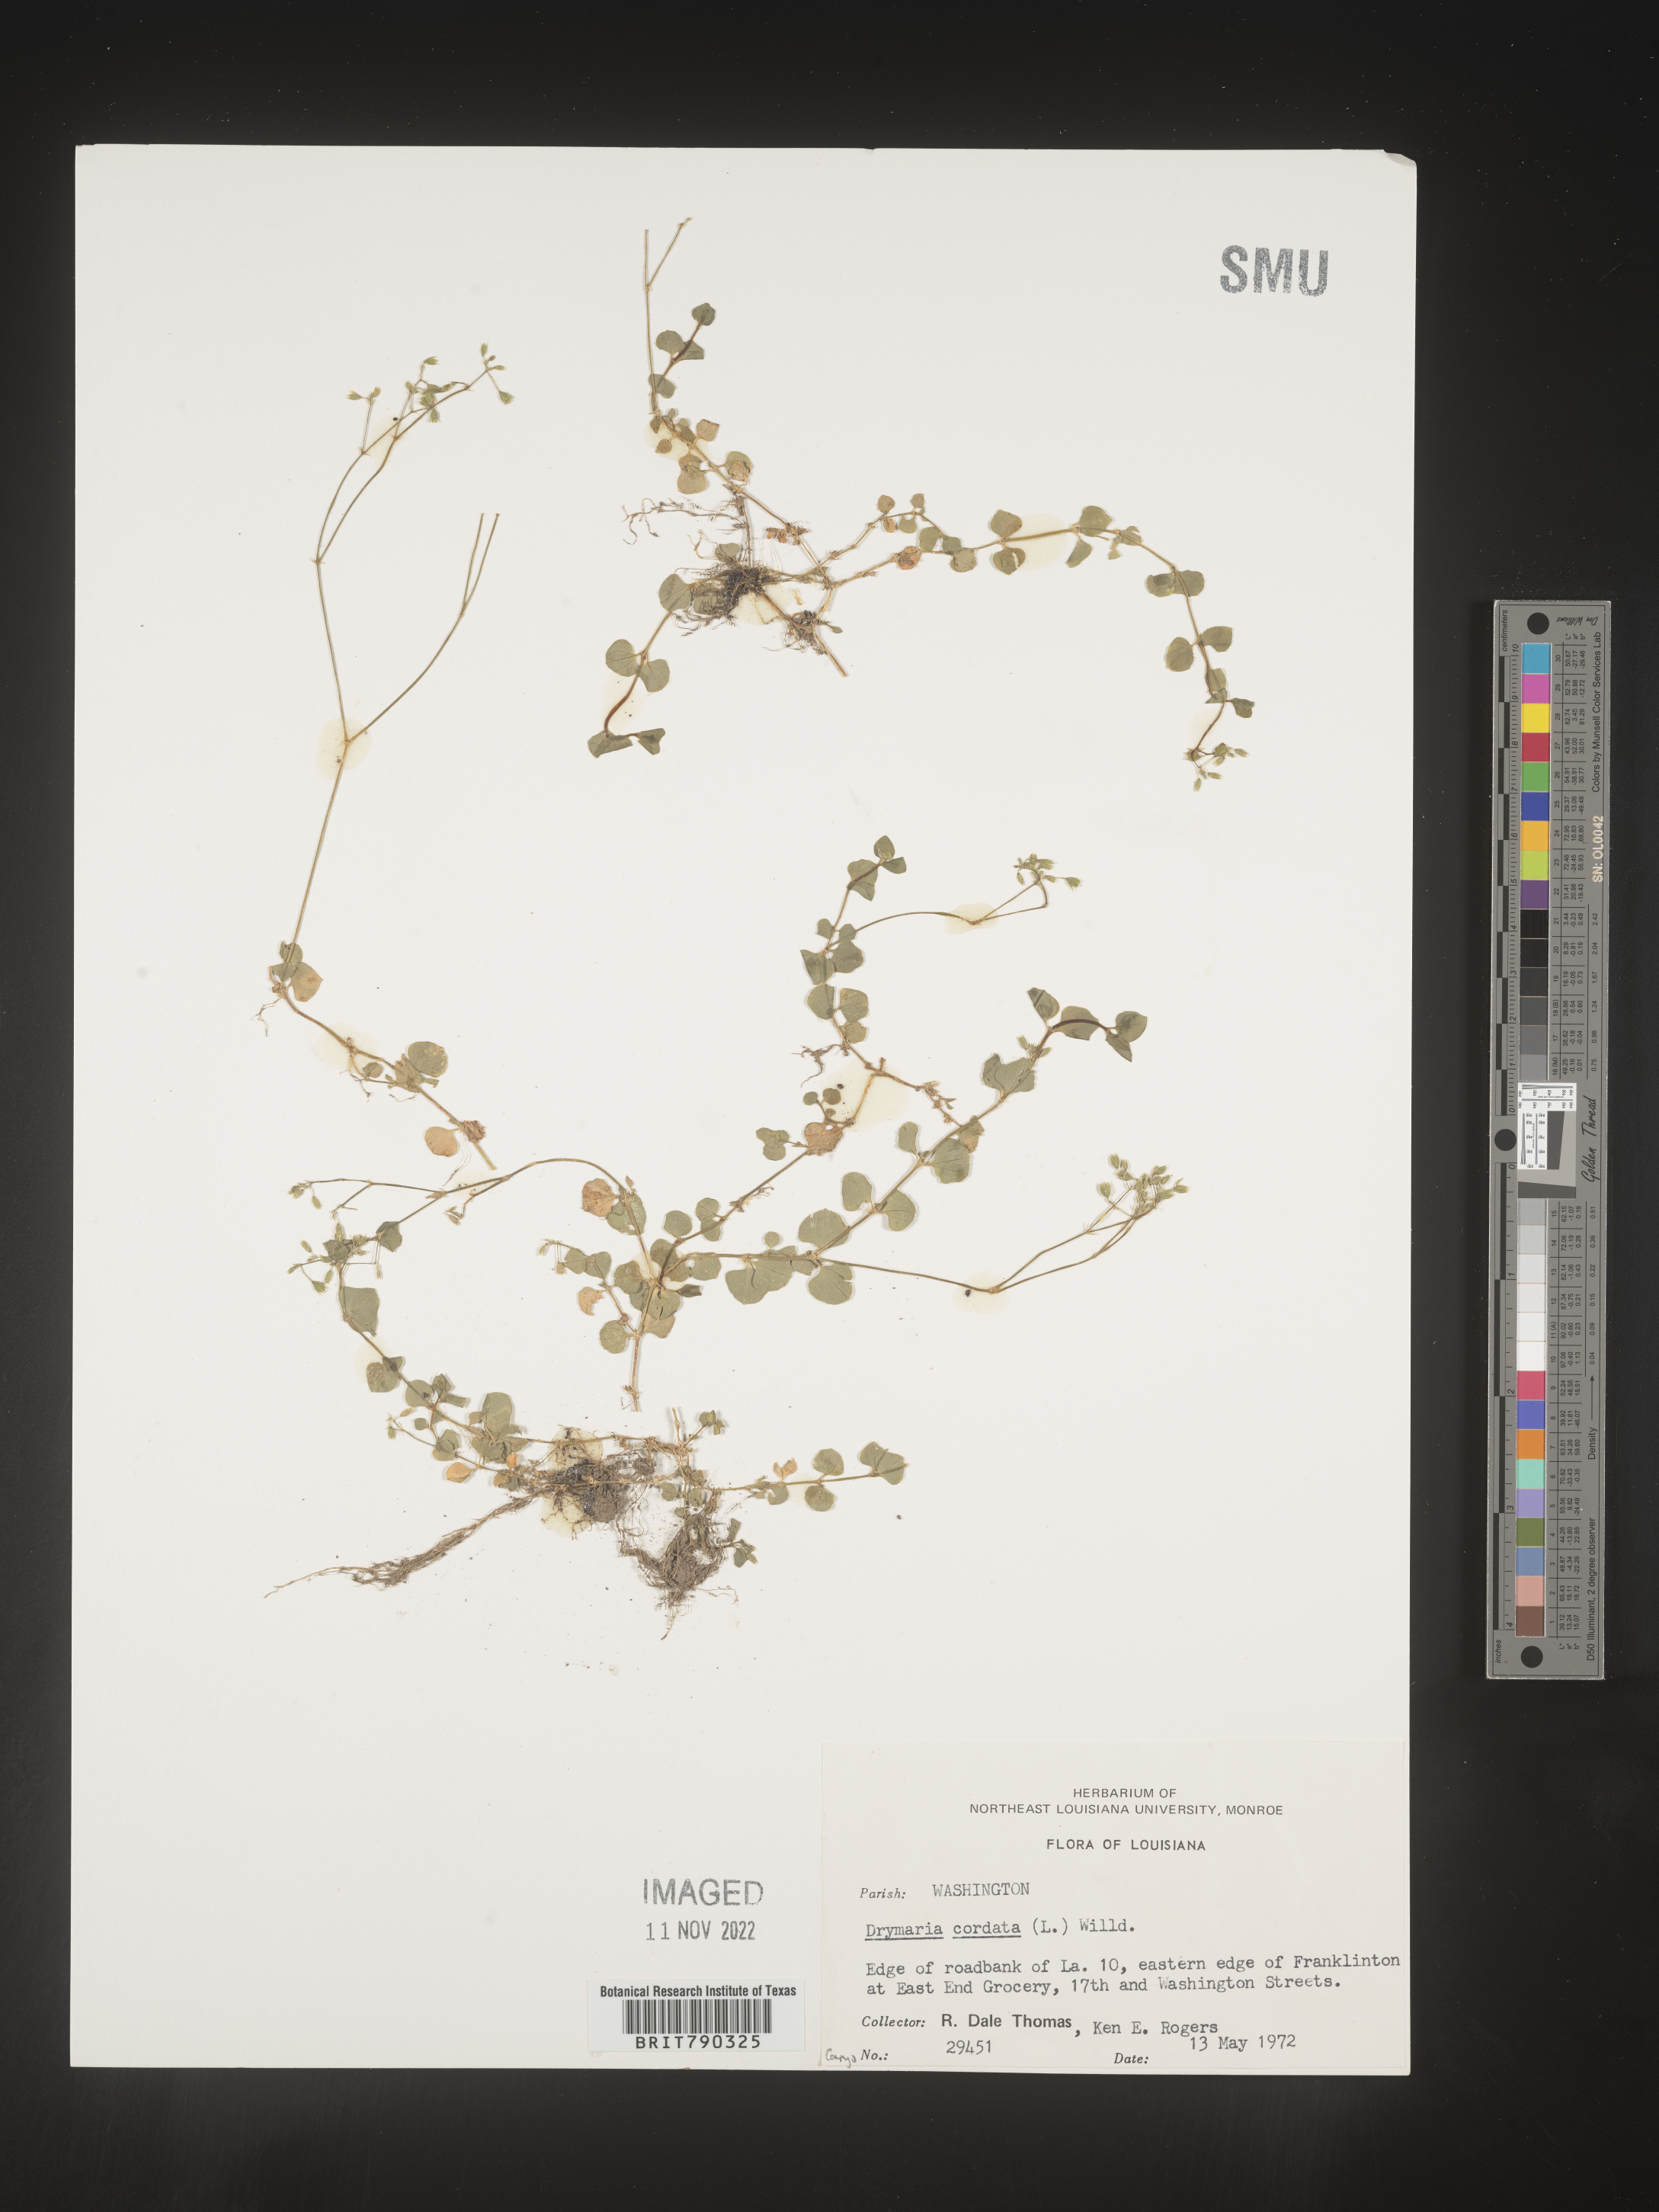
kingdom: Plantae
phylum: Tracheophyta
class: Magnoliopsida
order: Caryophyllales
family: Caryophyllaceae
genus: Drymaria
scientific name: Drymaria
